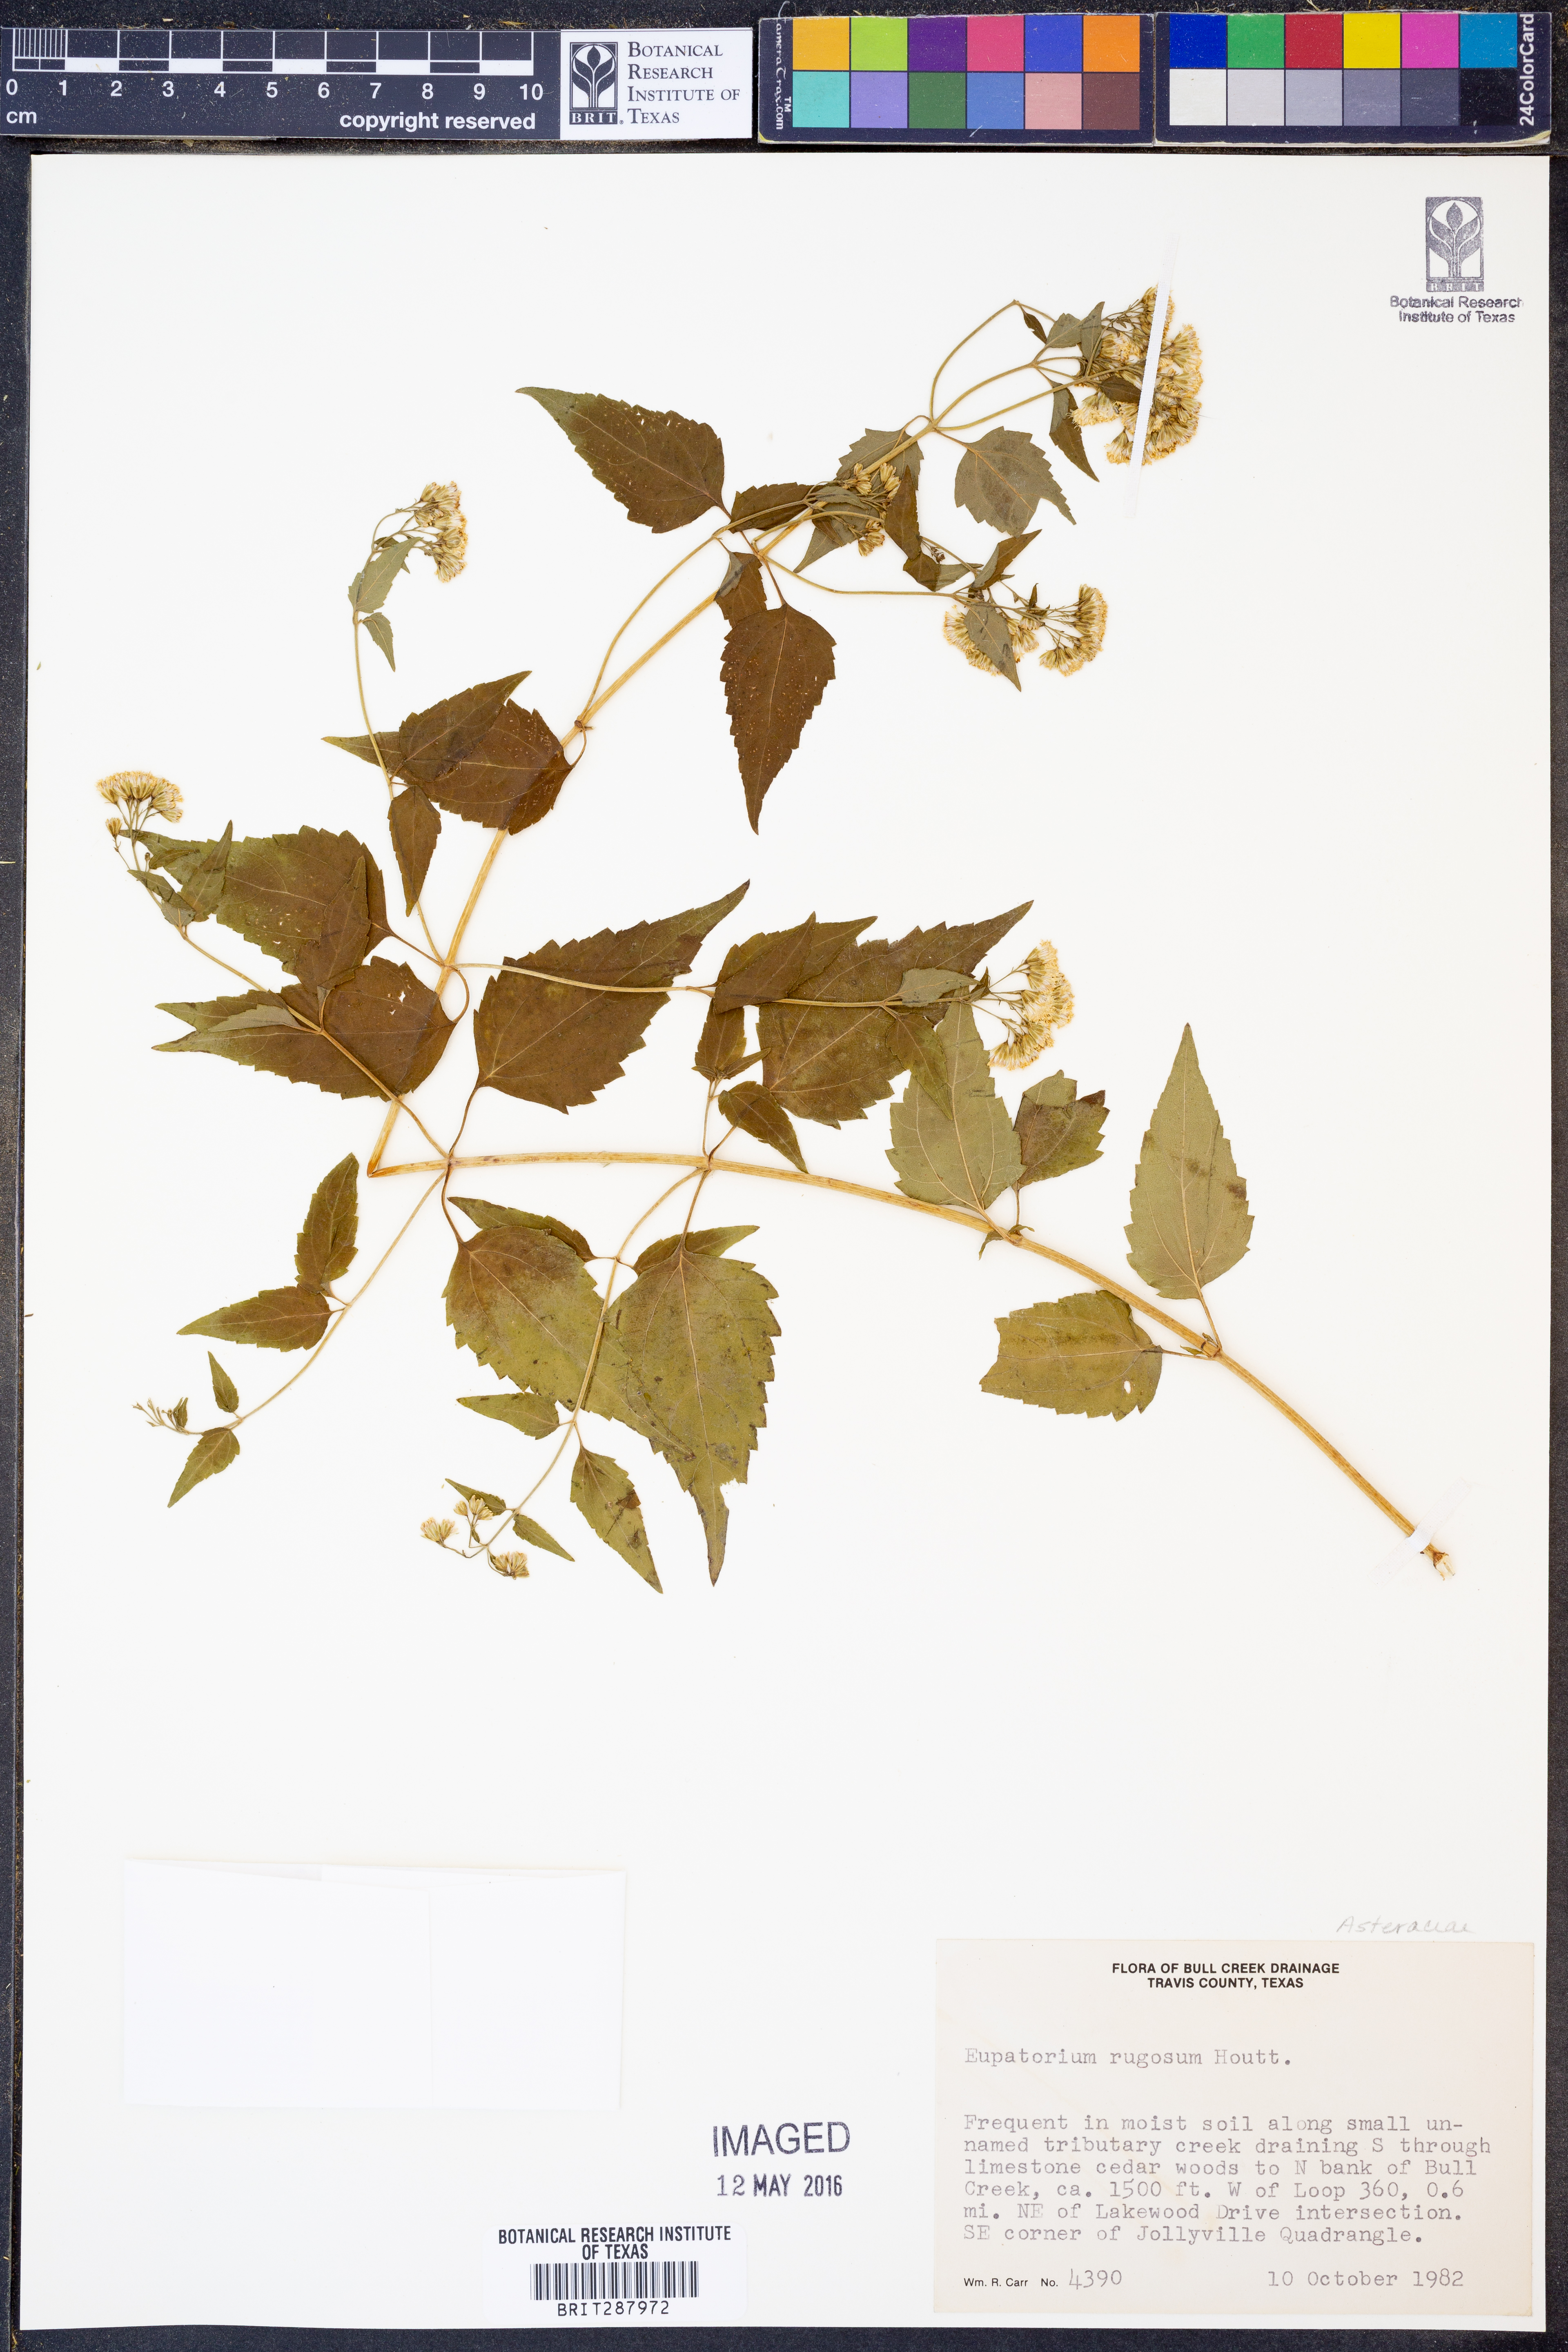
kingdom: Plantae
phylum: Tracheophyta
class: Magnoliopsida
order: Asterales
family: Asteraceae
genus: Cronquistianthus
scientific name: Cronquistianthus bulliferus
